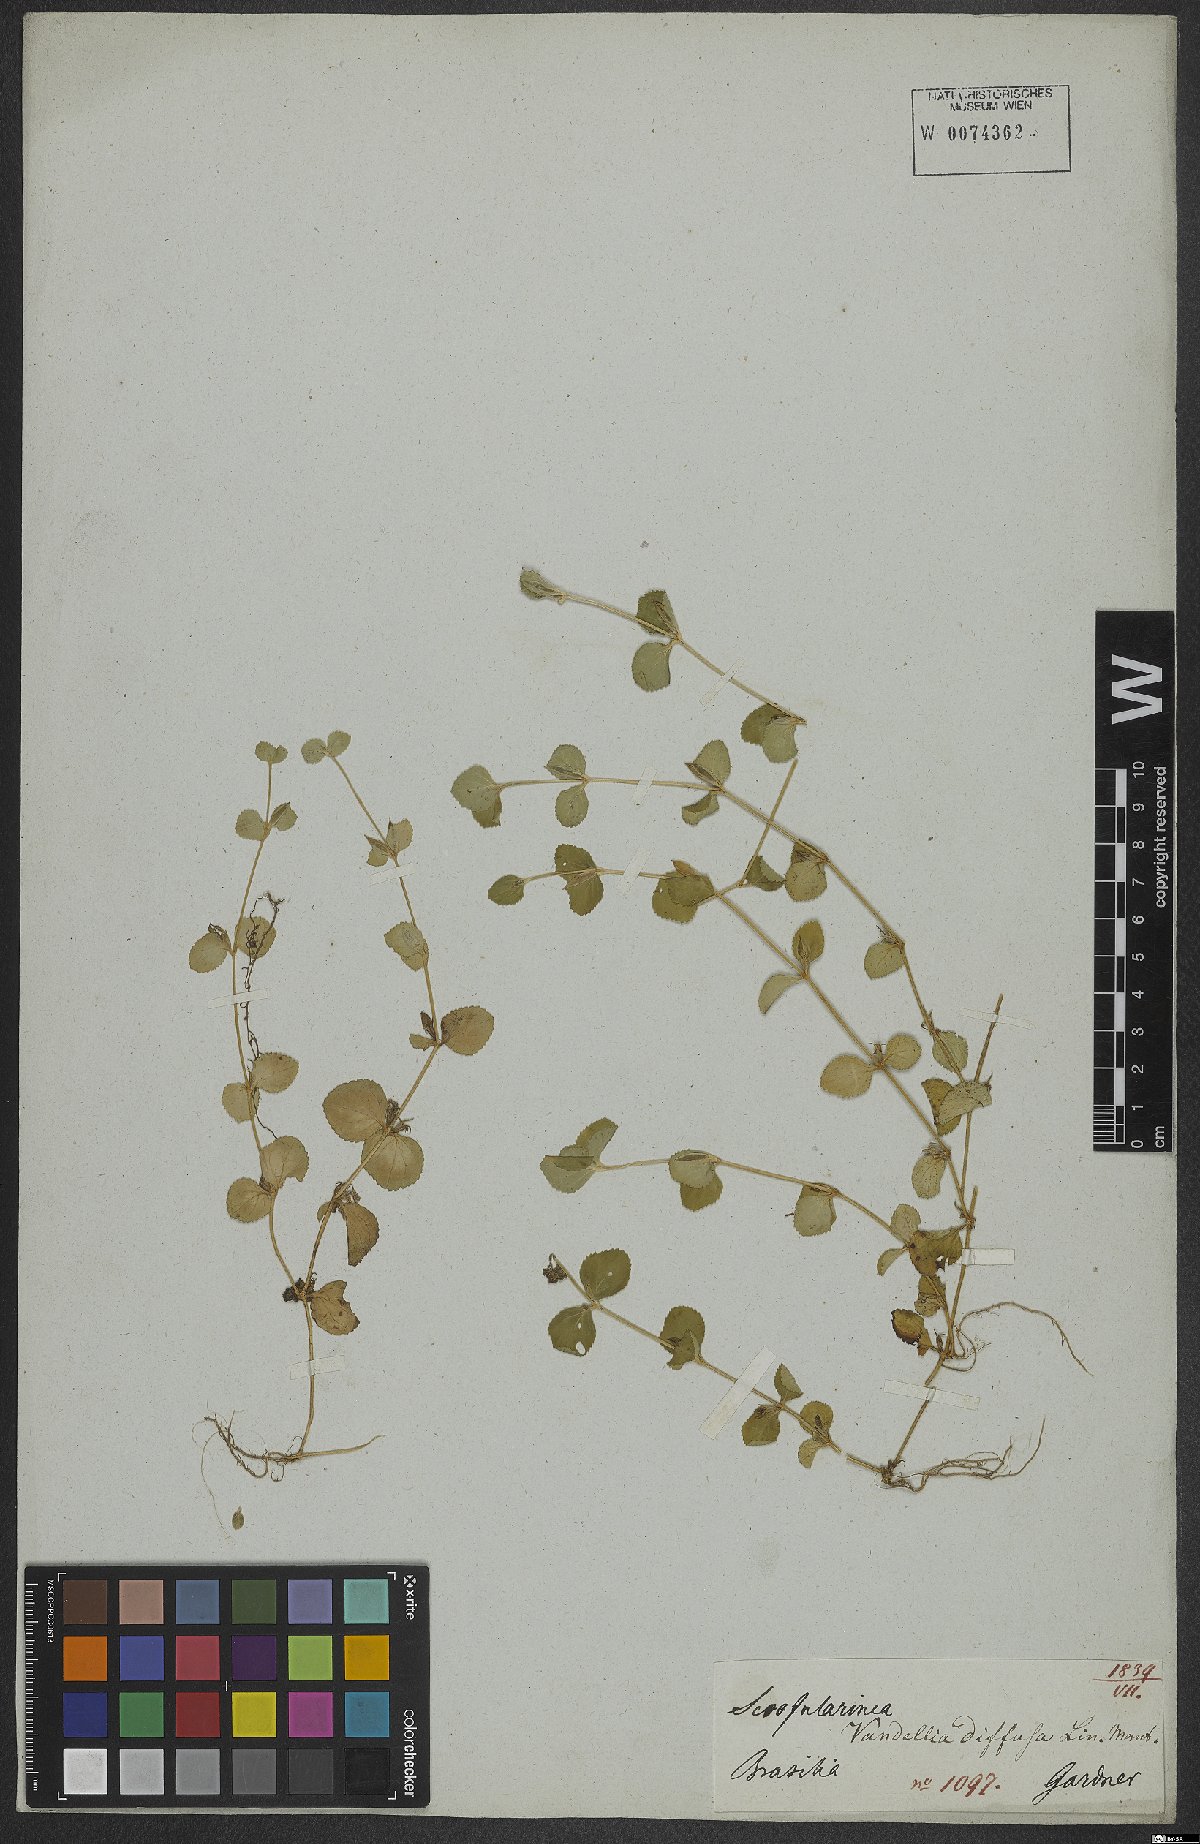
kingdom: Plantae
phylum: Tracheophyta
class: Magnoliopsida
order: Lamiales
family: Linderniaceae
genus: Vandellia
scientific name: Vandellia diffusa
